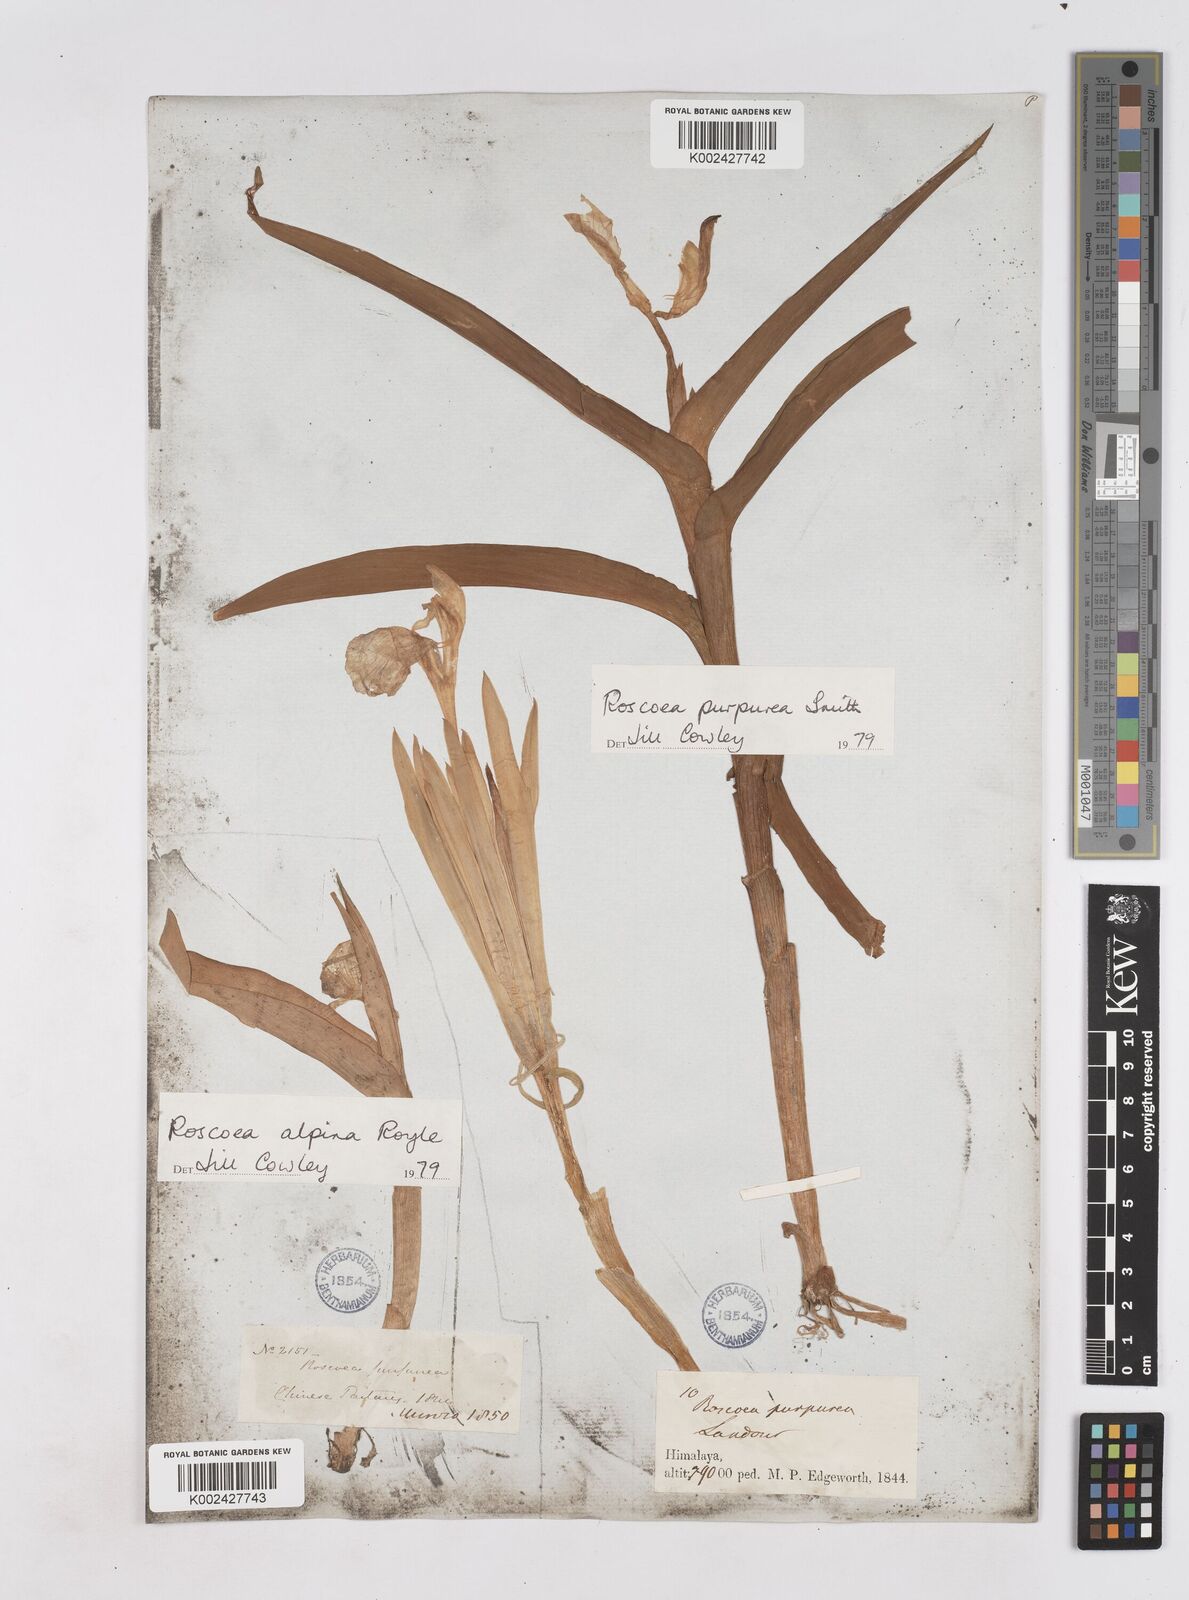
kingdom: Plantae
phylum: Tracheophyta
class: Liliopsida
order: Zingiberales
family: Zingiberaceae
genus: Roscoea
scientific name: Roscoea purpurea
